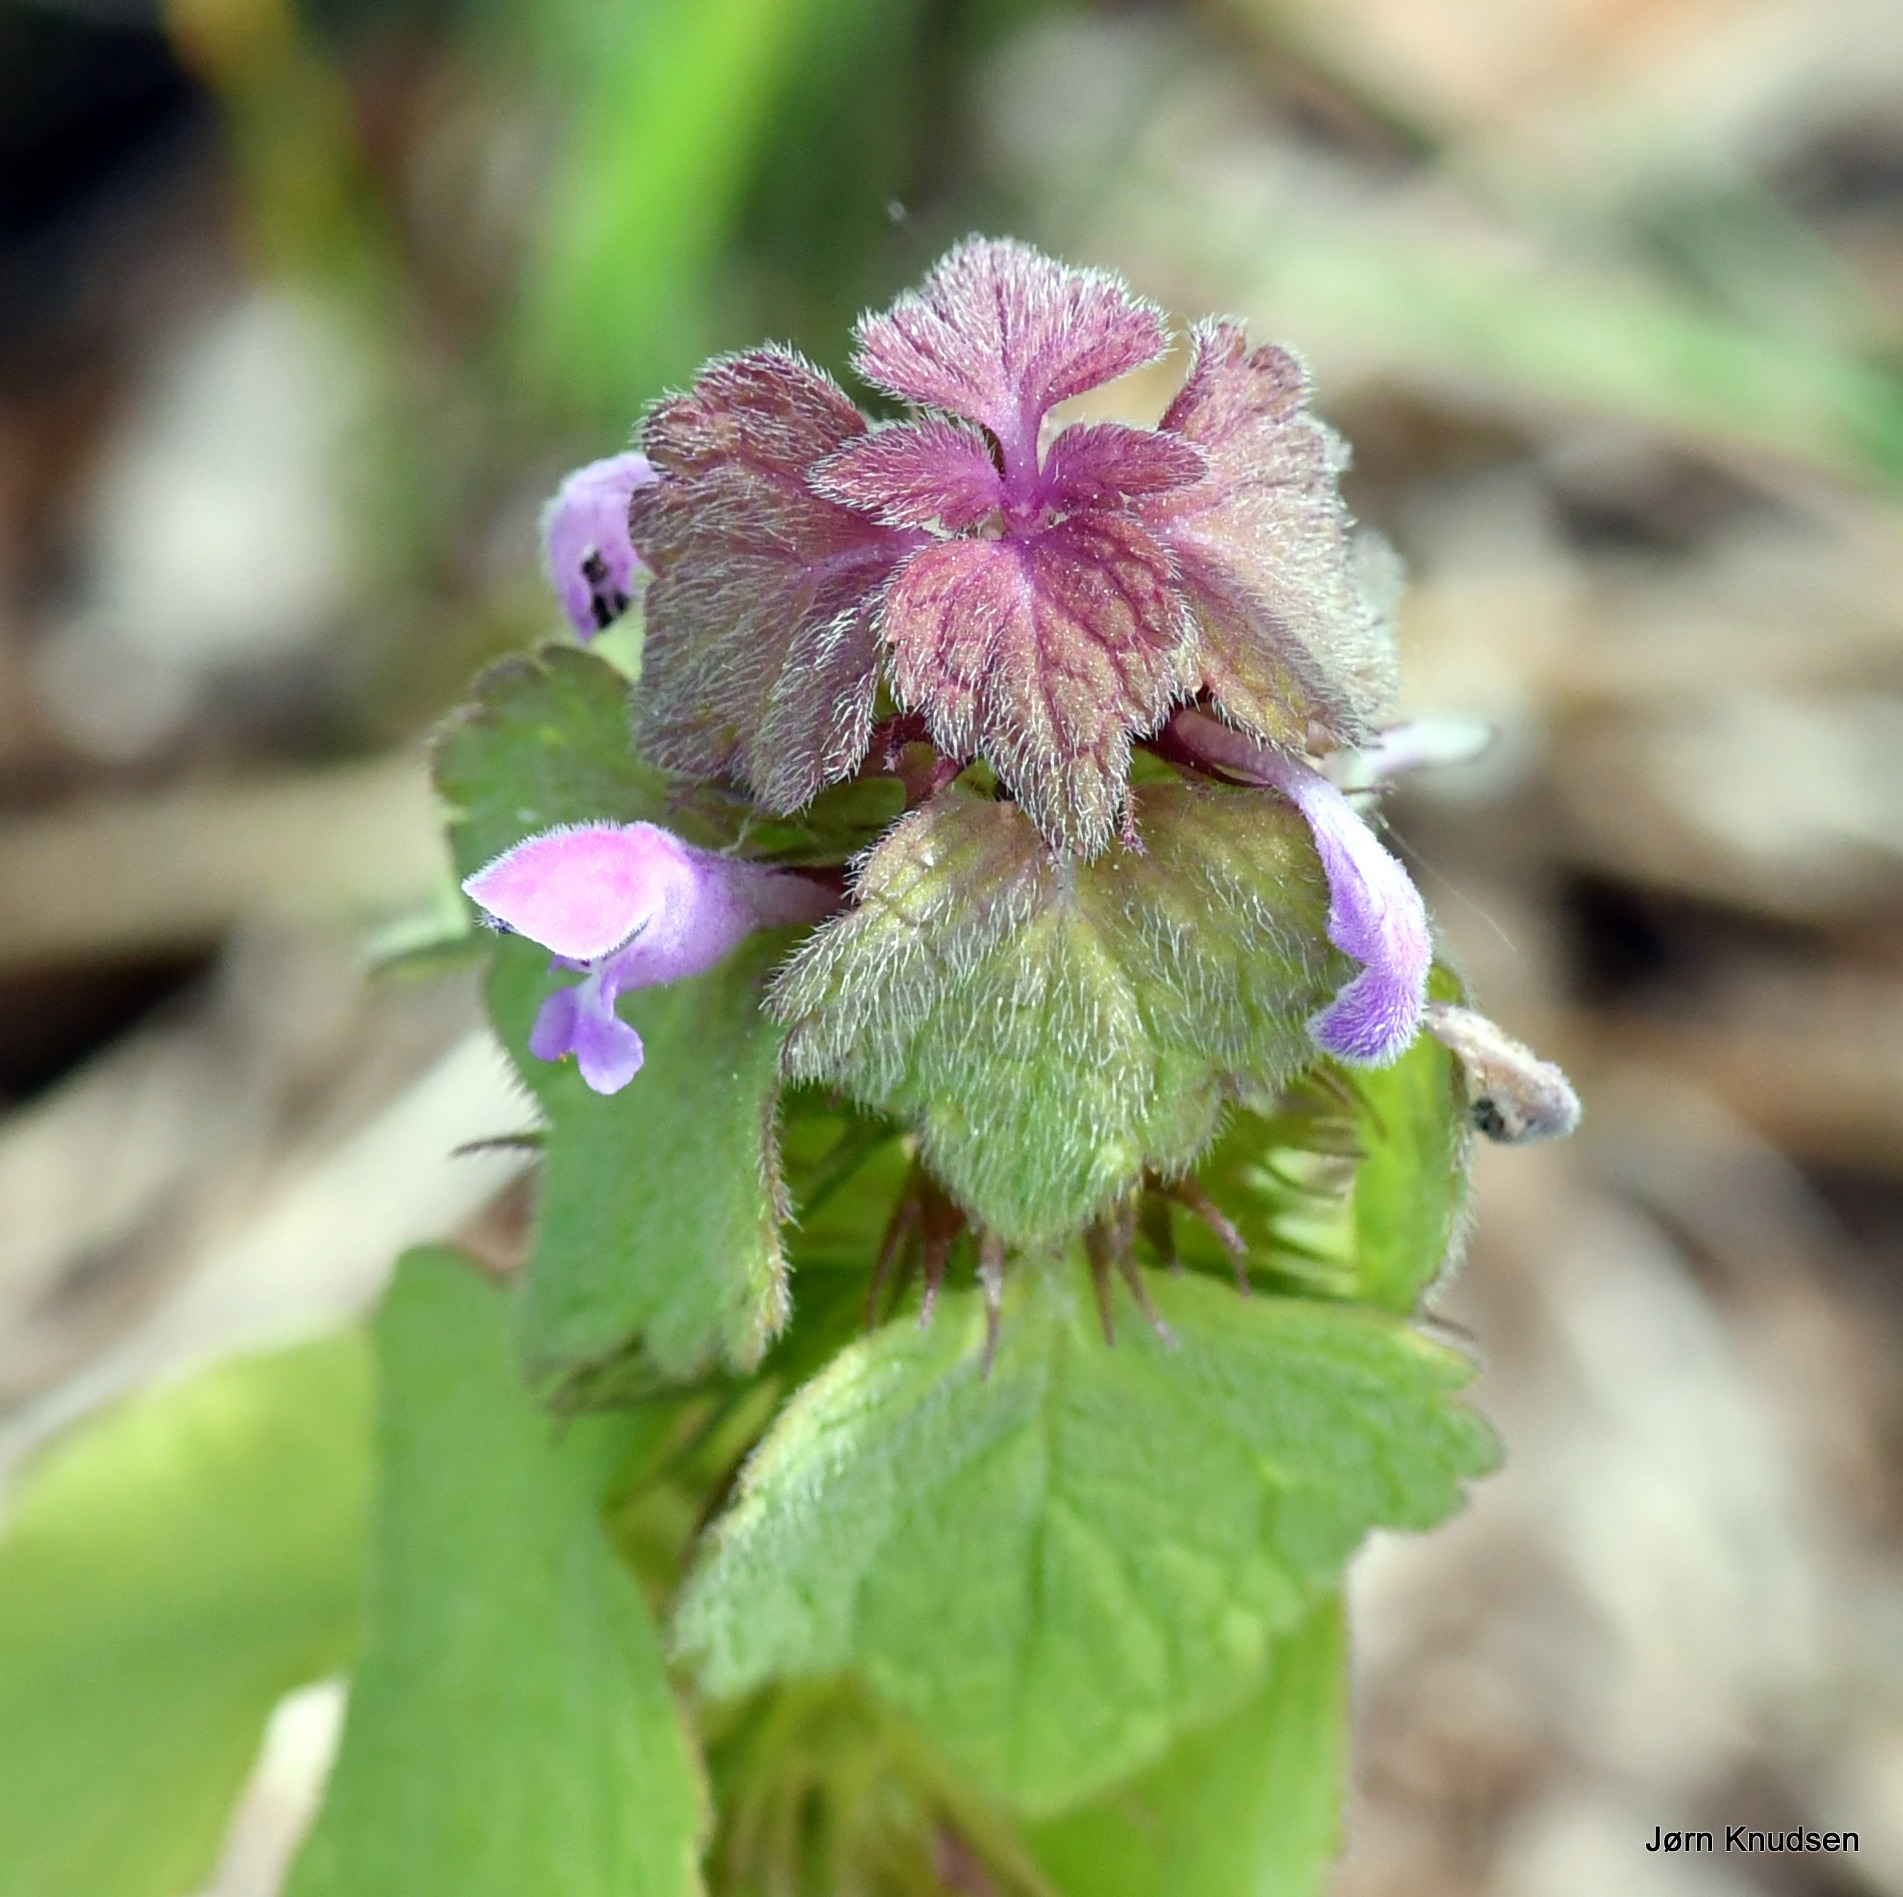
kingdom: Plantae
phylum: Tracheophyta
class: Magnoliopsida
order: Lamiales
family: Lamiaceae
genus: Lamium
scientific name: Lamium purpureum
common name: Rød tvetand
